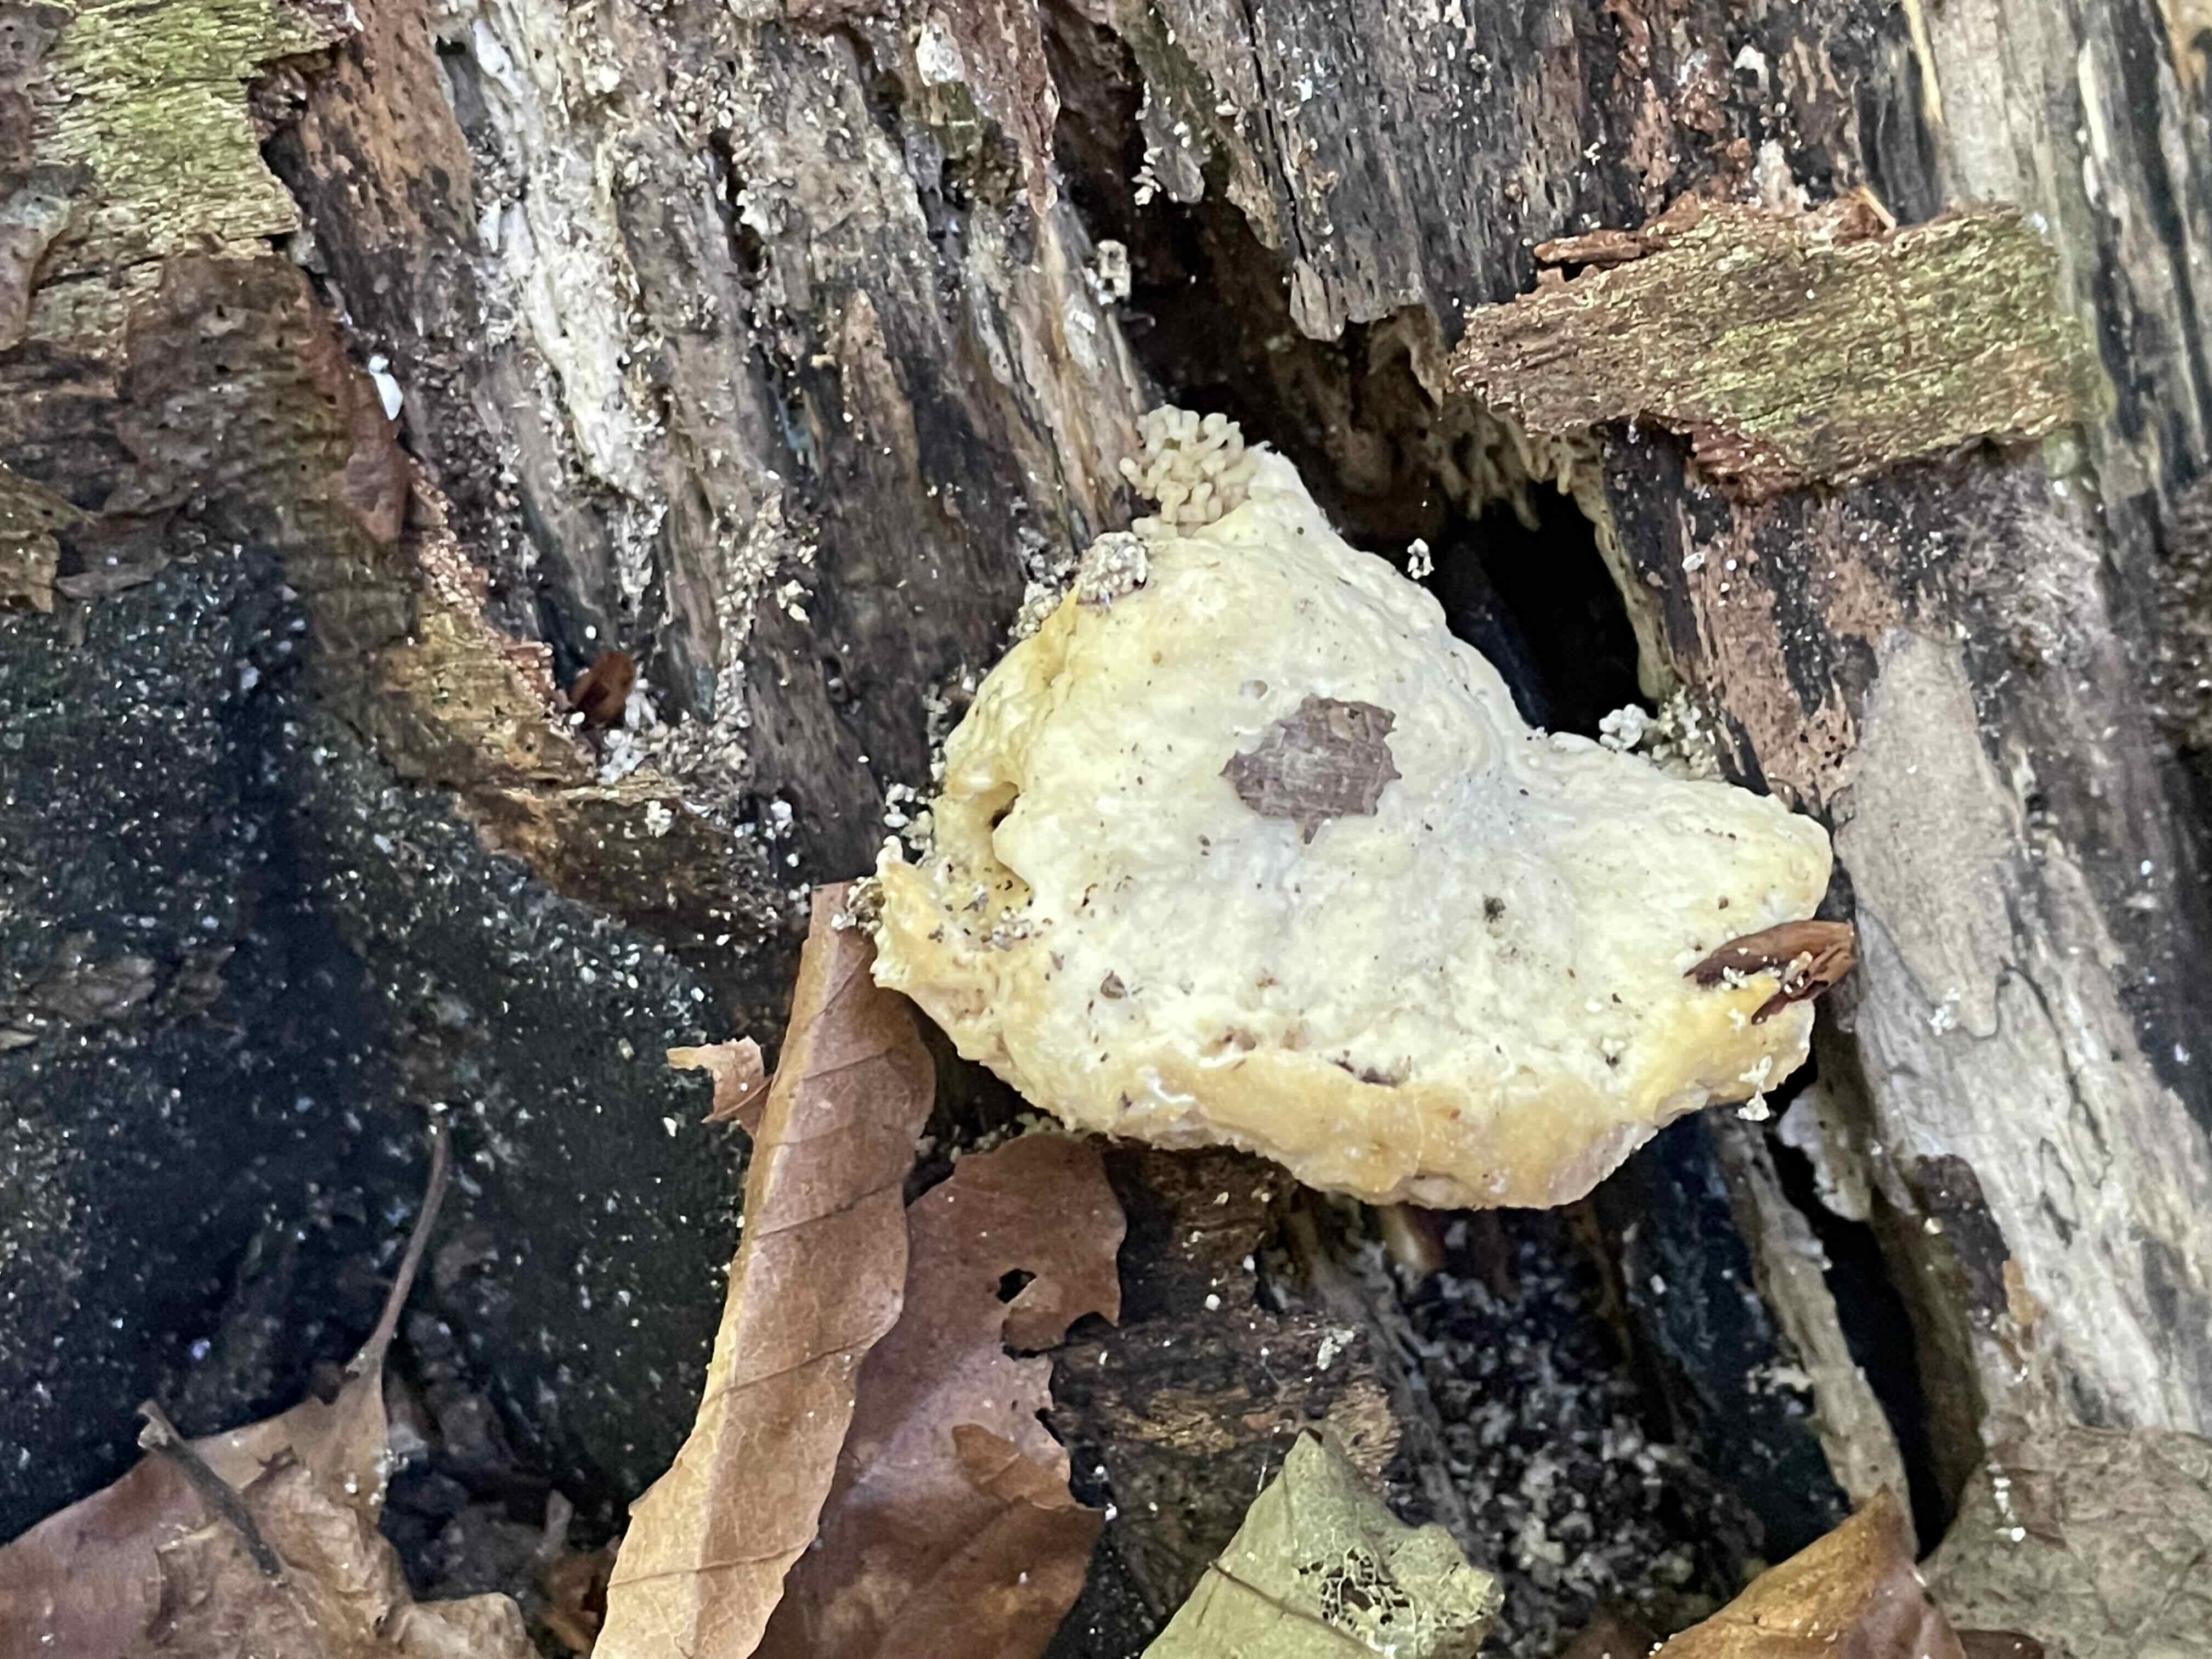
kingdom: Fungi
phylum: Basidiomycota
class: Agaricomycetes
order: Polyporales
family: Polyporaceae
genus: Trametes
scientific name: Trametes gibbosa
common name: puklet læderporesvamp
